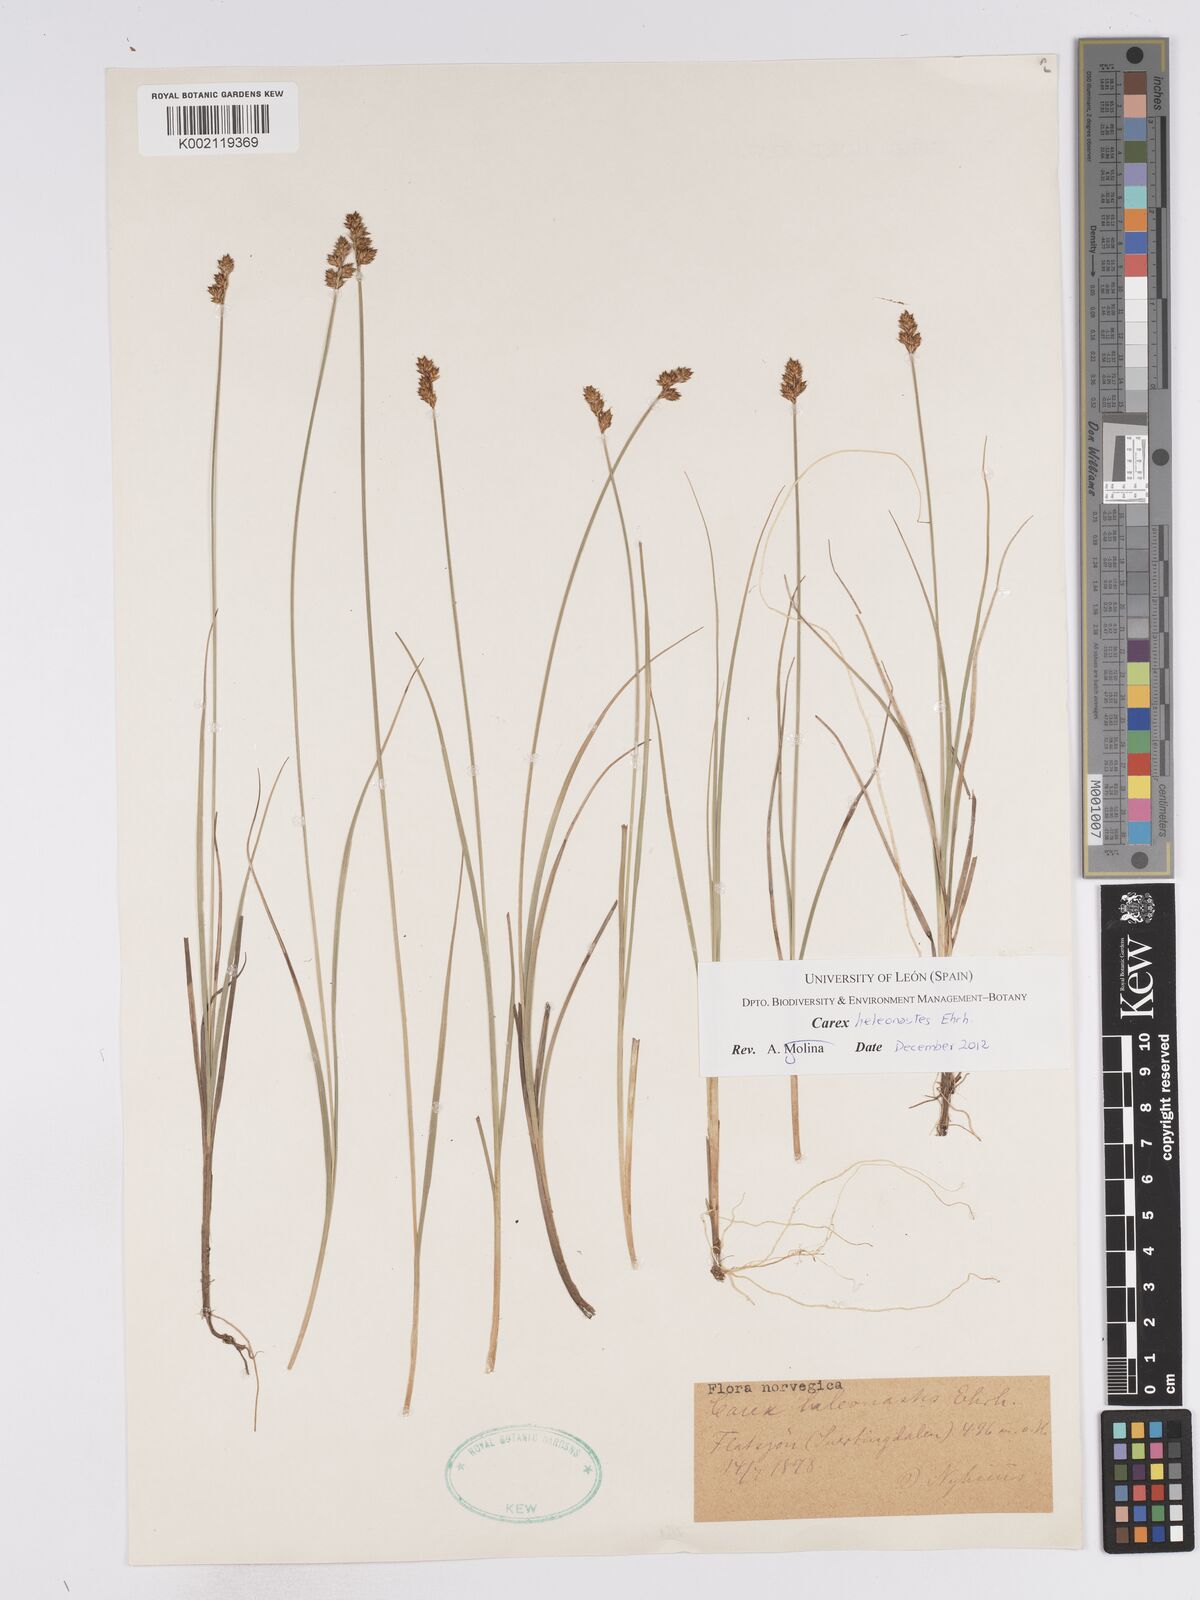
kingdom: Plantae
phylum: Tracheophyta
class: Liliopsida
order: Poales
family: Cyperaceae
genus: Carex
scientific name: Carex heleonastes
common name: Hudson bay sedge
